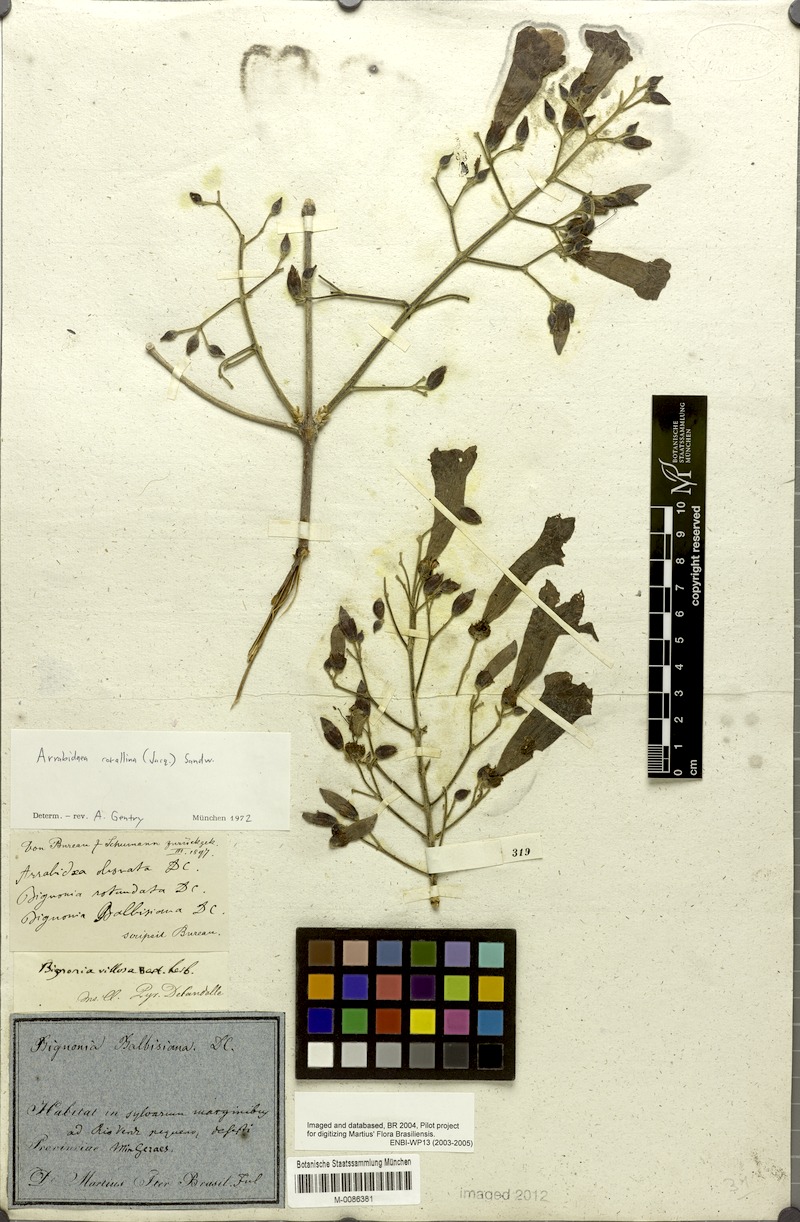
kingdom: Plantae
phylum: Tracheophyta
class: Magnoliopsida
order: Lamiales
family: Bignoniaceae
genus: Tanaecium
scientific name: Tanaecium dichotomum
